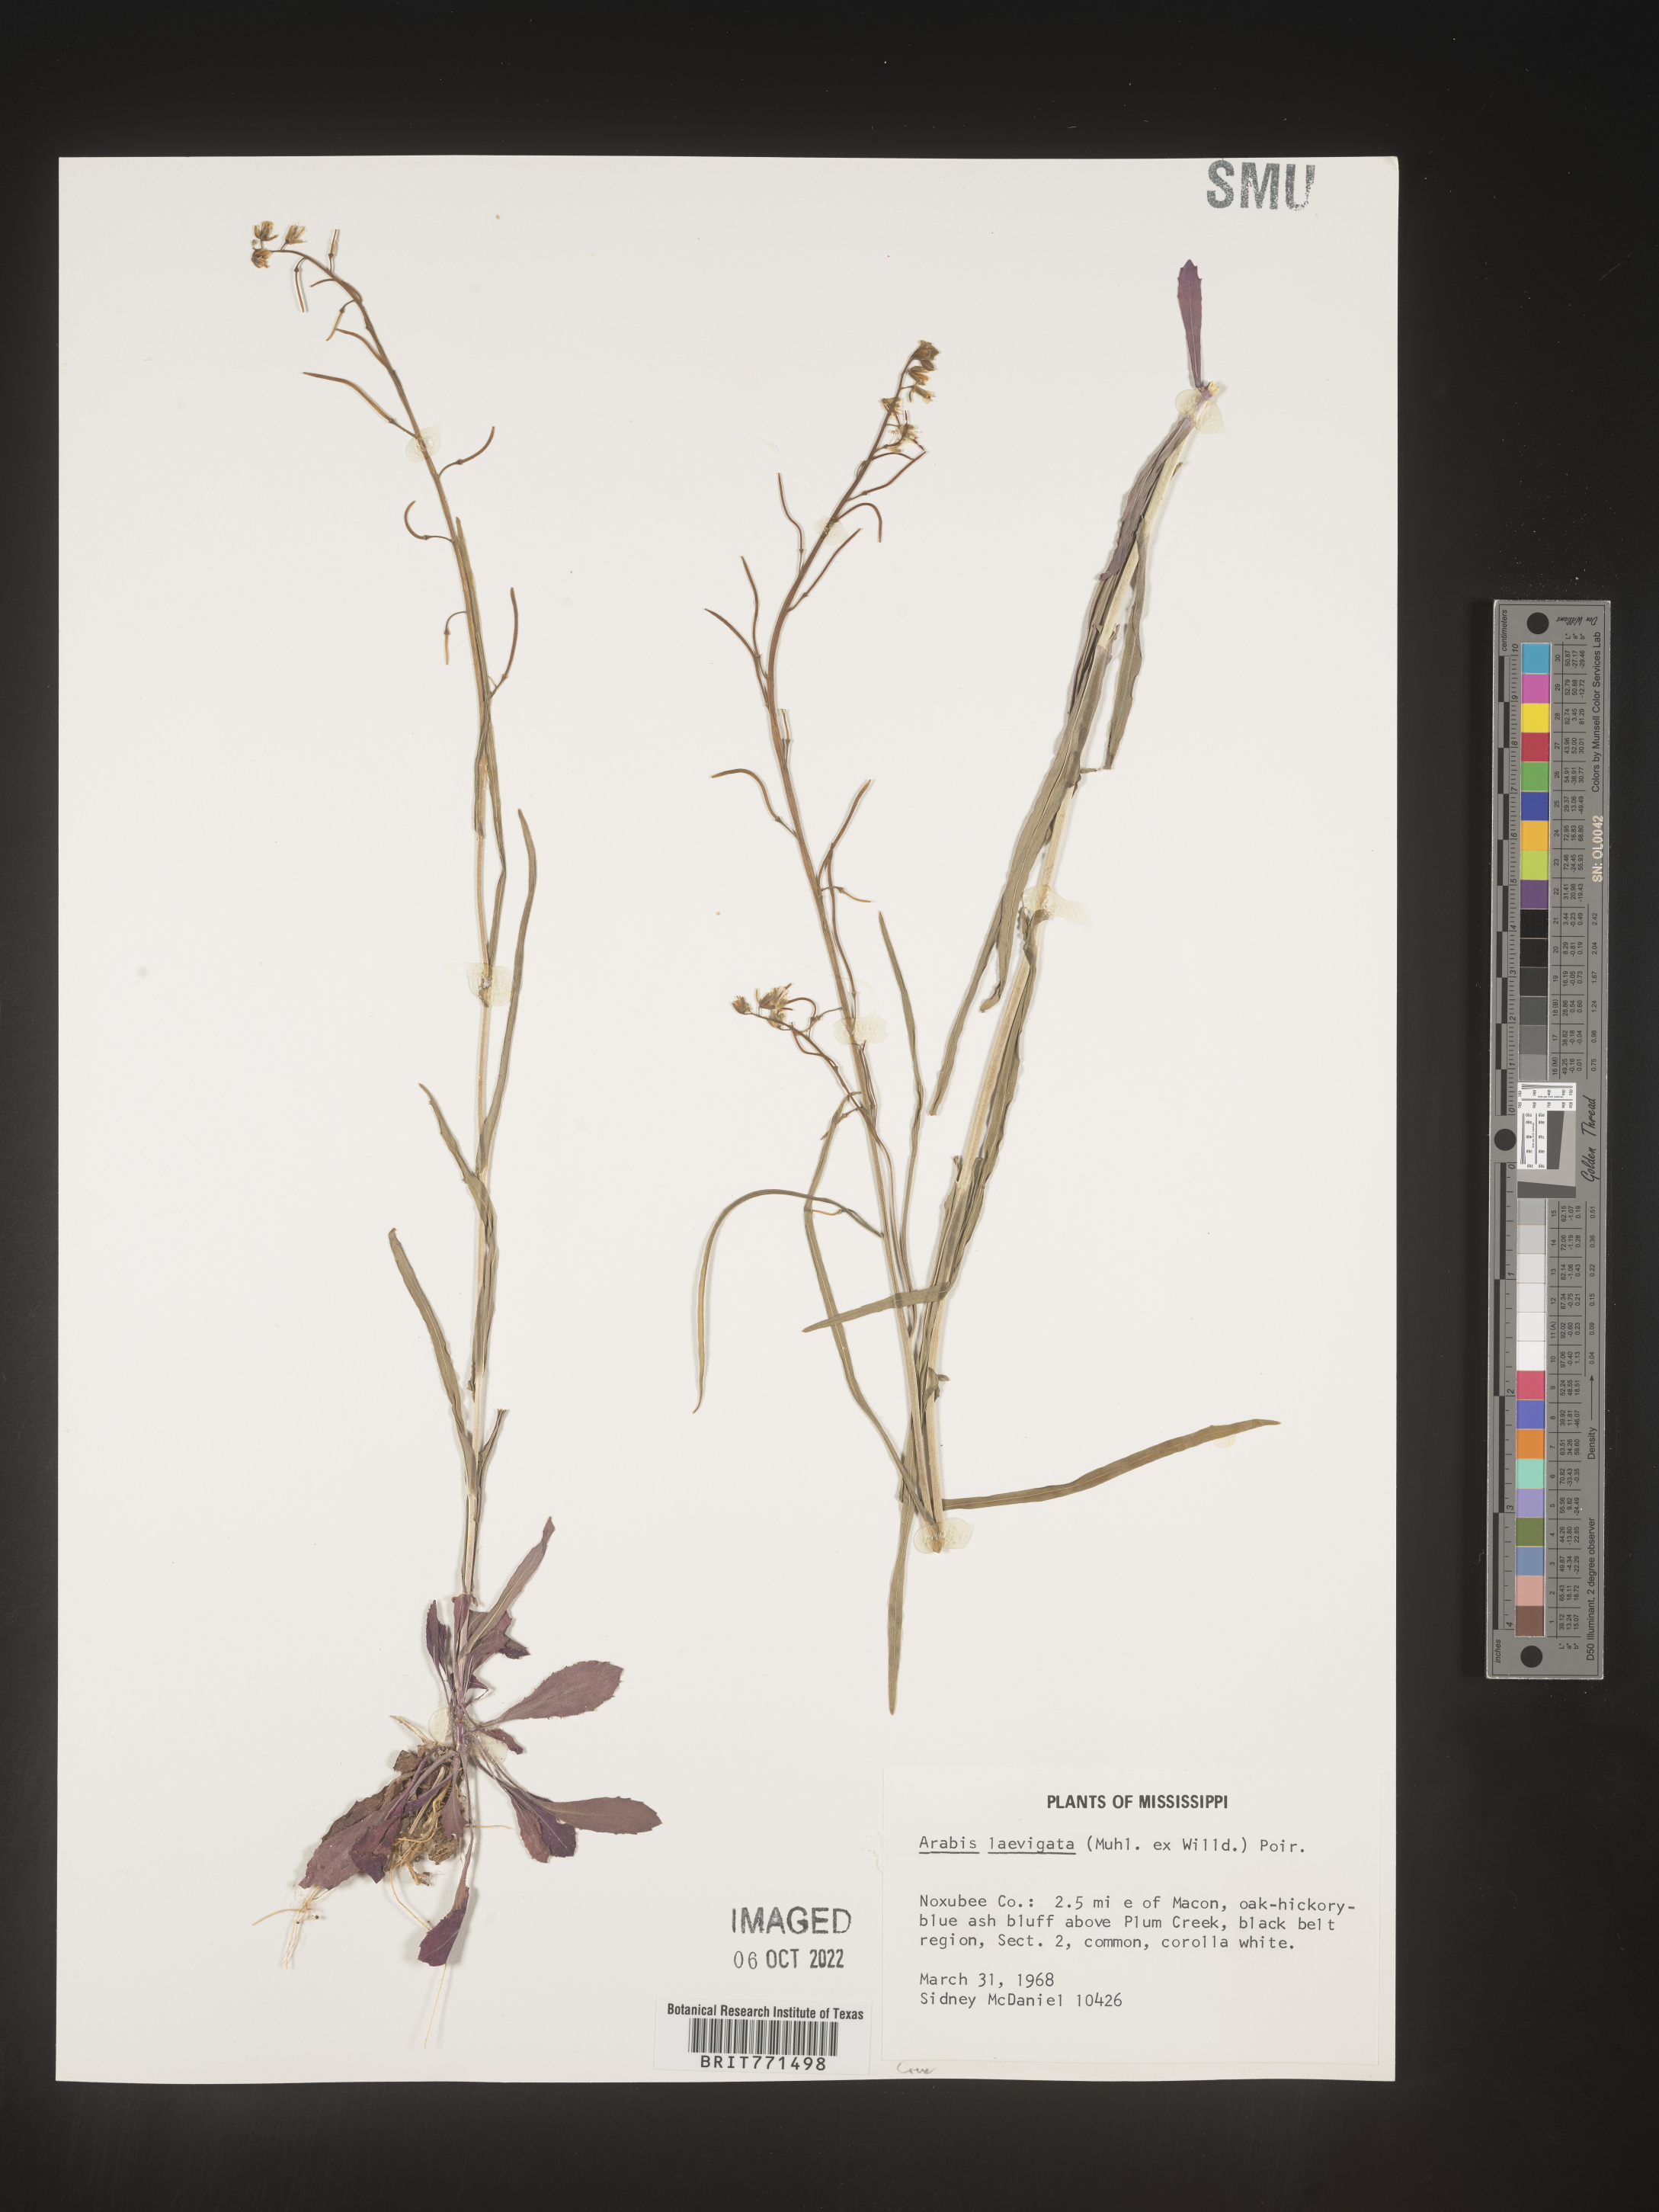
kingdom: Plantae
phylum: Tracheophyta
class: Magnoliopsida
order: Brassicales
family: Brassicaceae
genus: Arabis
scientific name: Arabis laevigata
